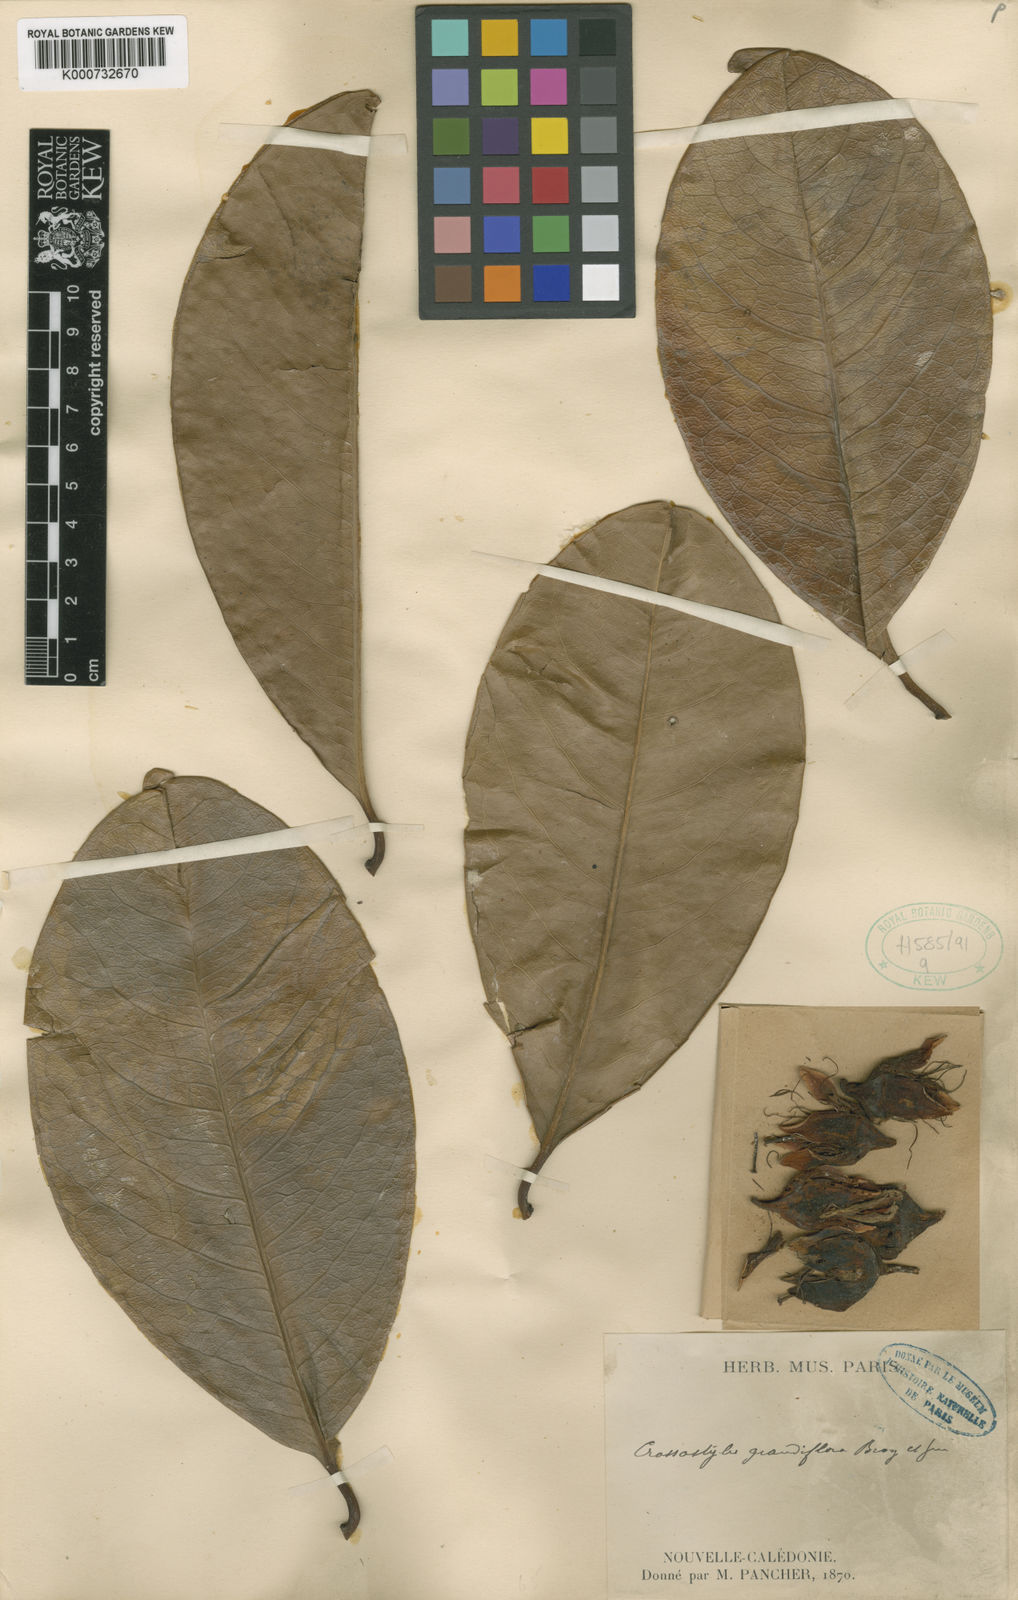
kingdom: Plantae
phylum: Tracheophyta
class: Magnoliopsida
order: Malpighiales
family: Rhizophoraceae
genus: Crossostylis
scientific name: Crossostylis grandiflora
